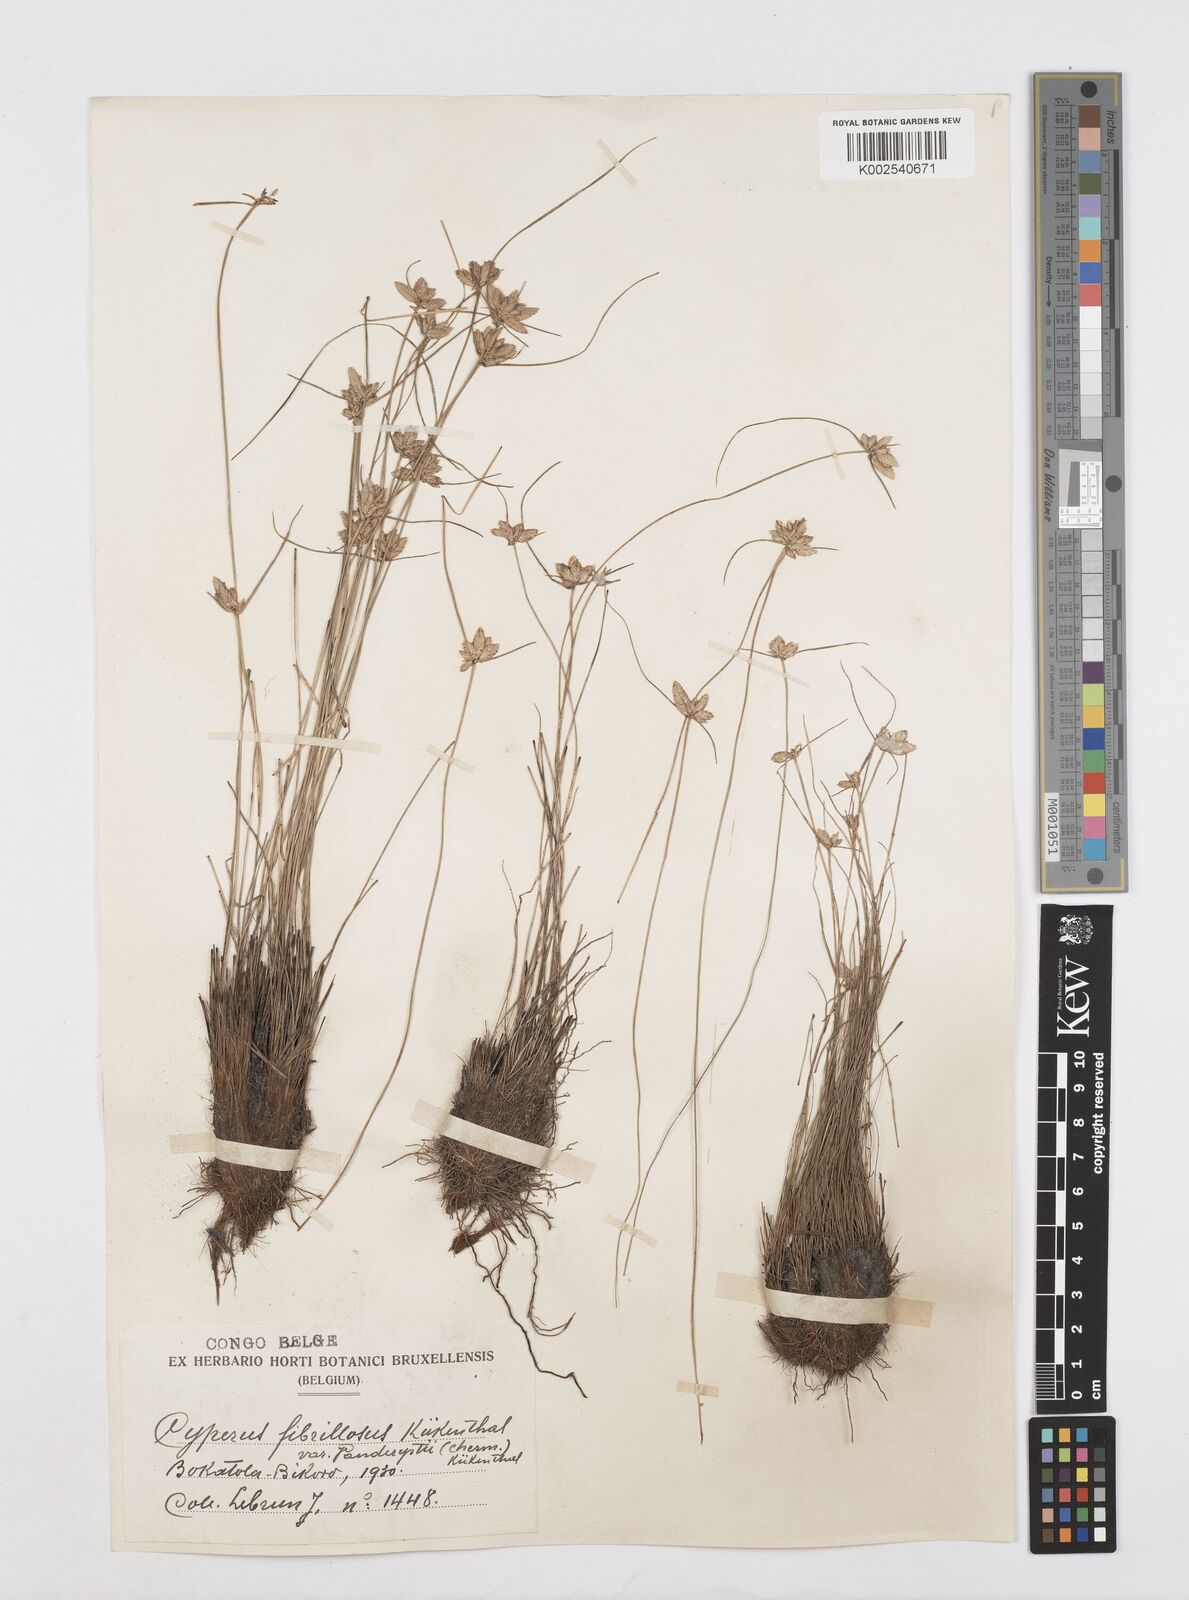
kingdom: Plantae
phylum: Tracheophyta
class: Liliopsida
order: Poales
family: Cyperaceae
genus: Cyperus
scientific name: Cyperus
